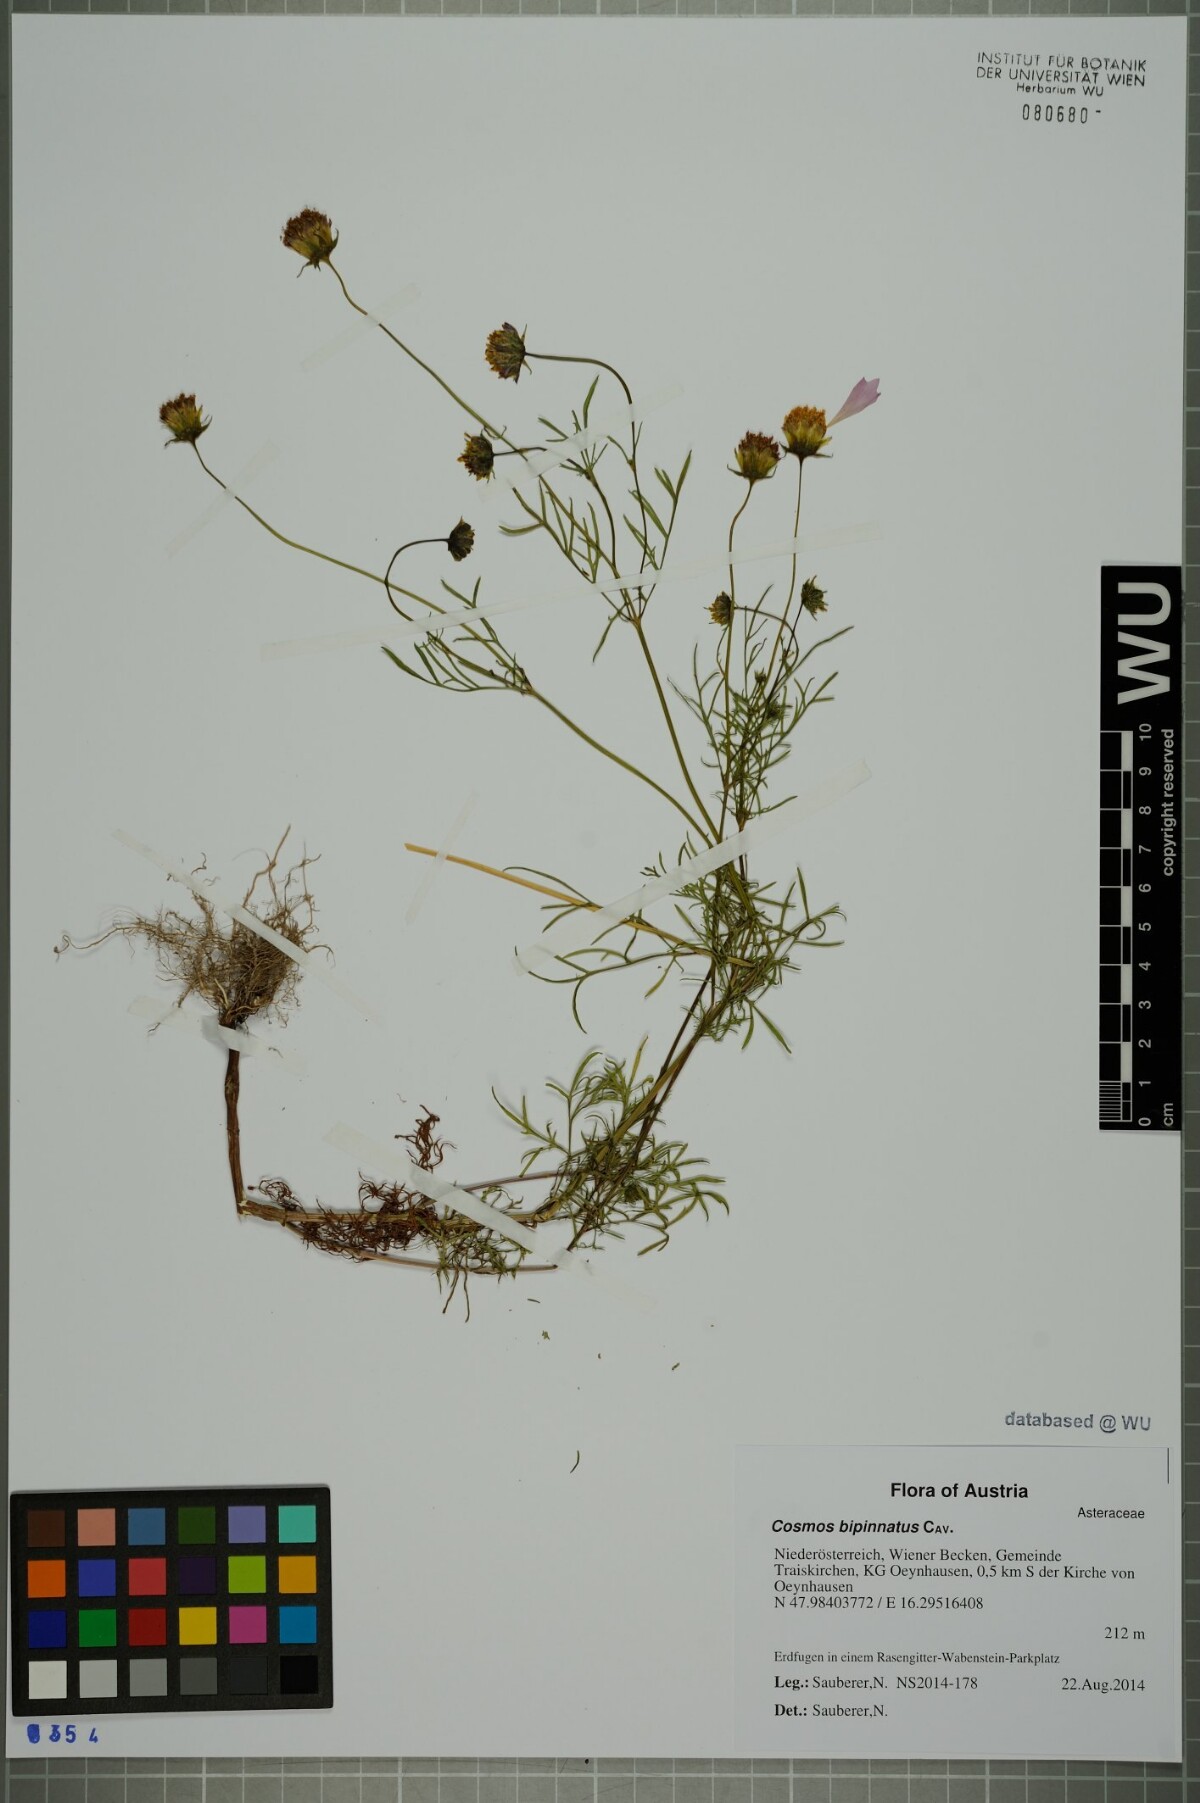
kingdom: Plantae
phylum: Tracheophyta
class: Magnoliopsida
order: Asterales
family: Asteraceae
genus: Cosmos
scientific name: Cosmos bipinnatus
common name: Garden cosmos
